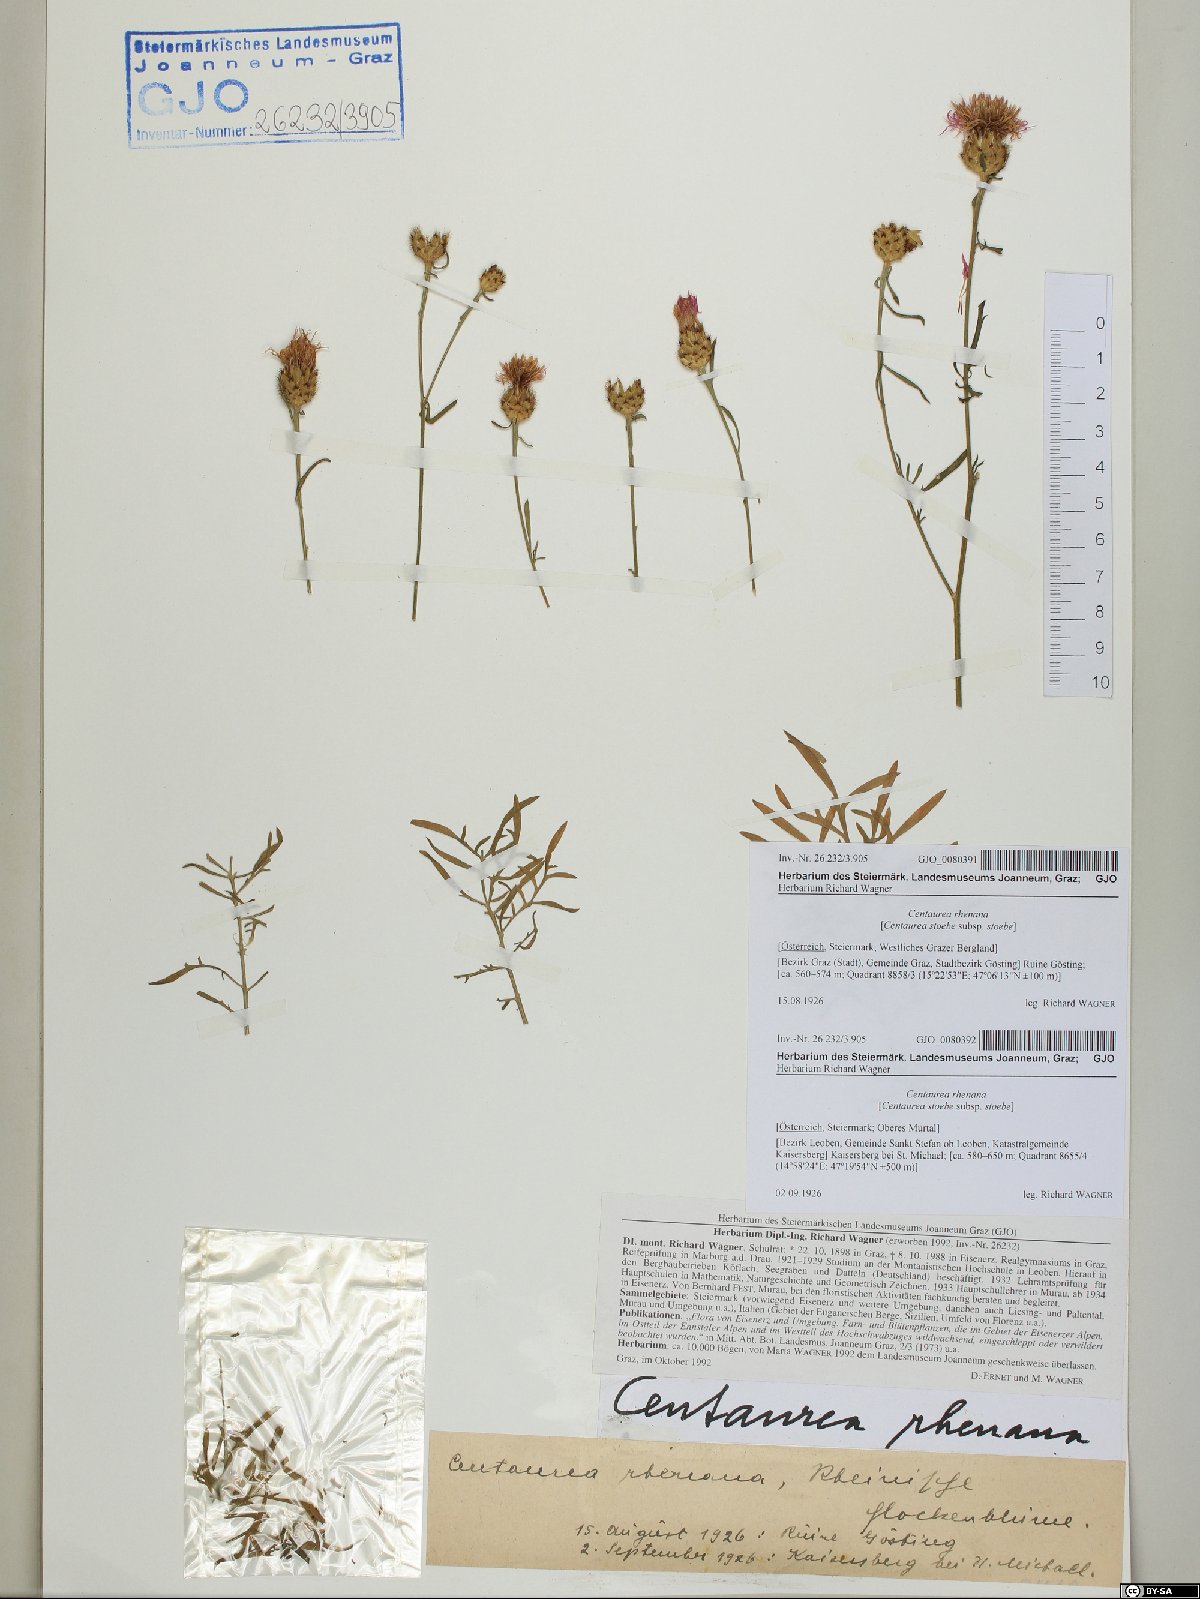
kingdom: Plantae
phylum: Tracheophyta
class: Magnoliopsida
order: Asterales
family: Asteraceae
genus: Centaurea
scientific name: Centaurea stoebe
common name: Spotted knapweed
